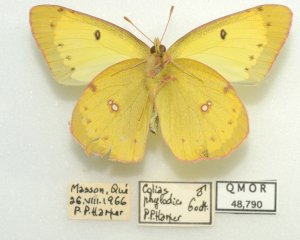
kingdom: Animalia
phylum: Arthropoda
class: Insecta
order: Lepidoptera
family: Pieridae
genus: Colias
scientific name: Colias philodice
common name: Clouded Sulphur
